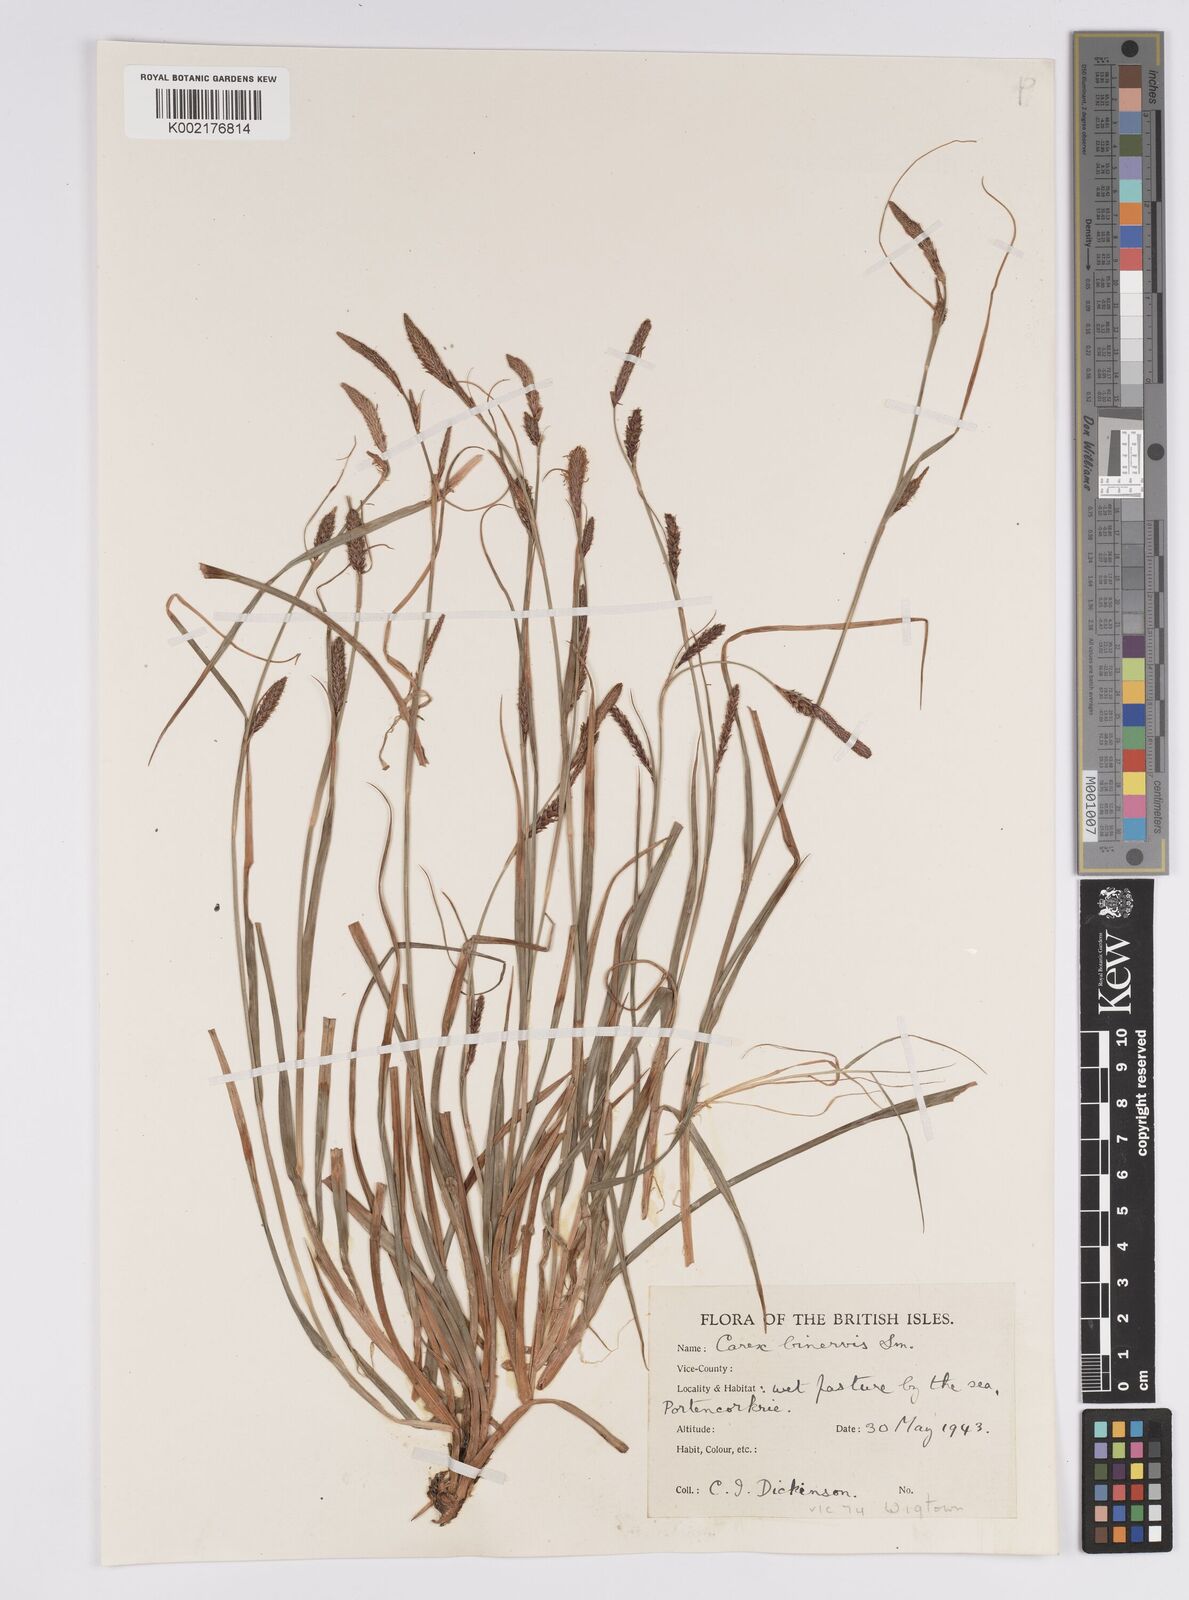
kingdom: Plantae
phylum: Tracheophyta
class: Liliopsida
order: Poales
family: Cyperaceae
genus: Carex
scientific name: Carex binervis
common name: Green-ribbed sedge
